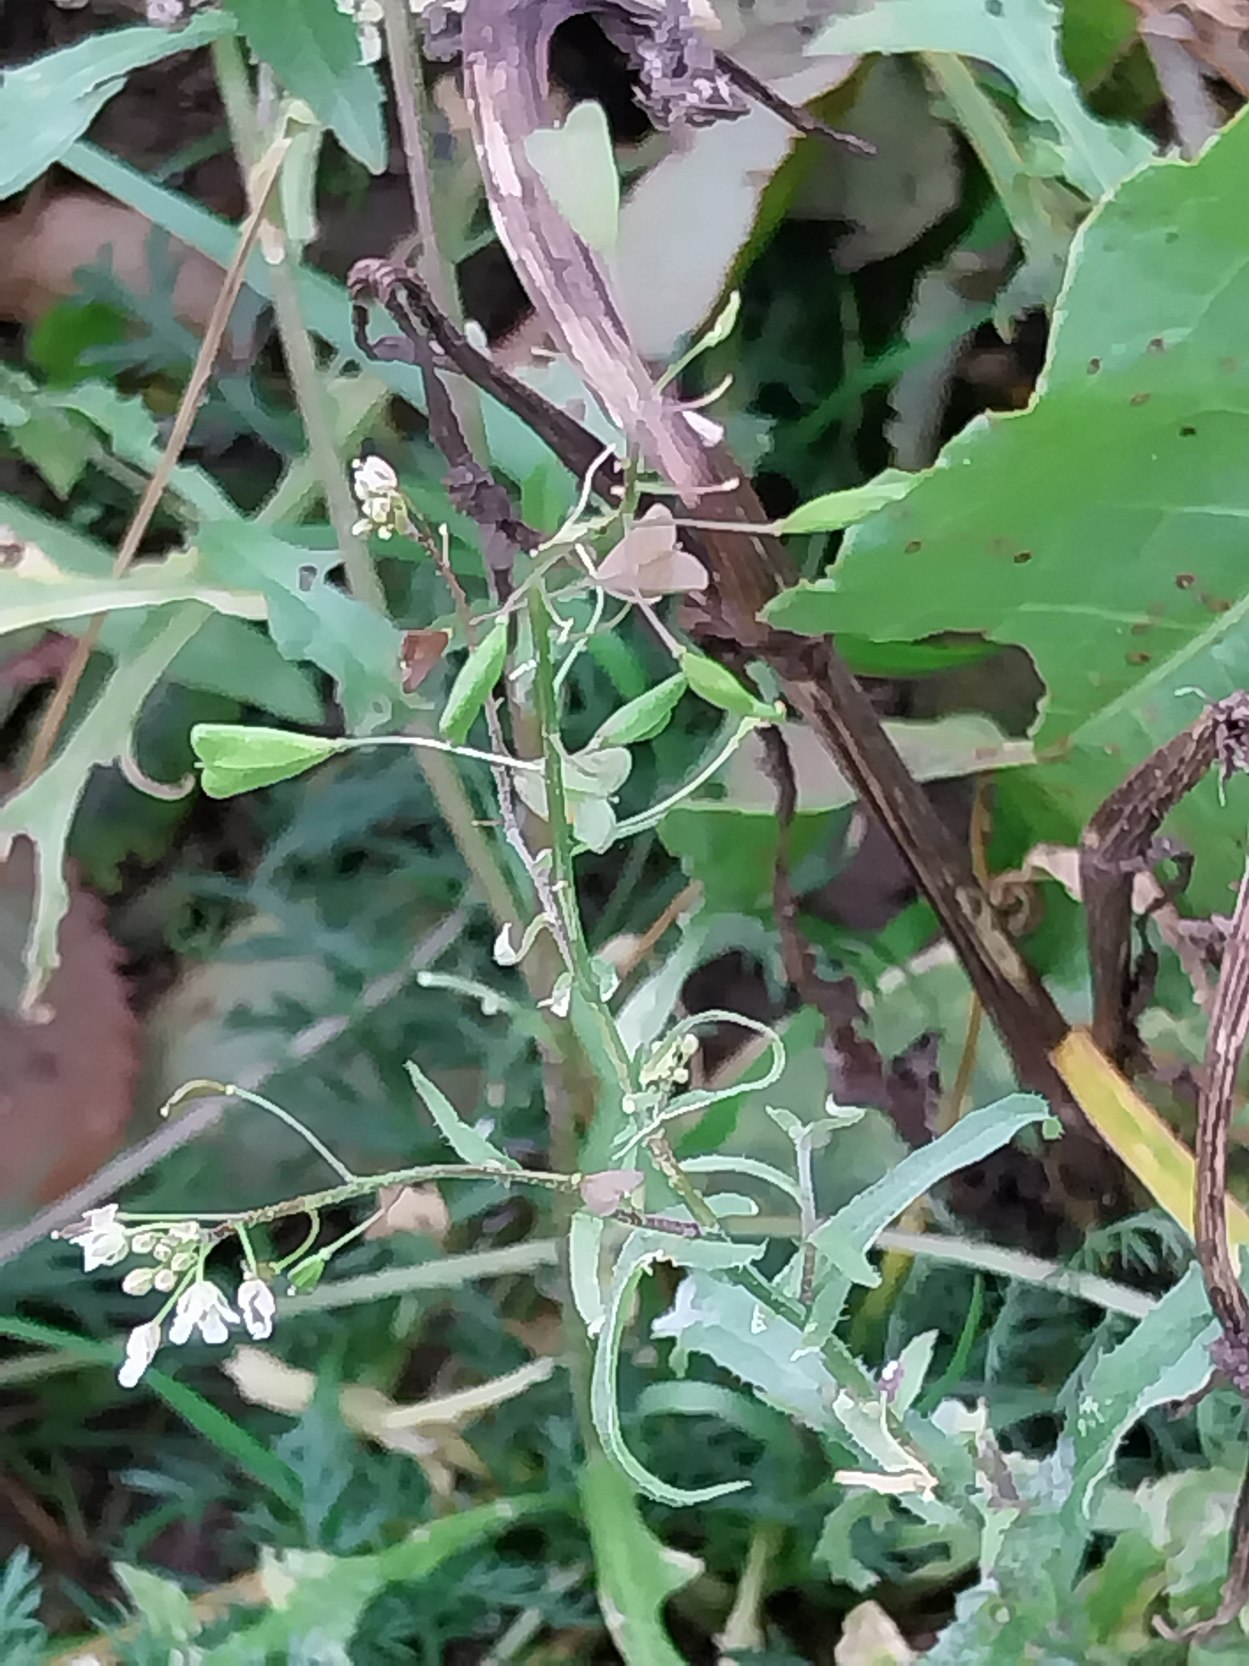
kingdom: Plantae
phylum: Tracheophyta
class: Magnoliopsida
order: Brassicales
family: Brassicaceae
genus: Capsella
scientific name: Capsella bursa-pastoris
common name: Hyrdetaske
